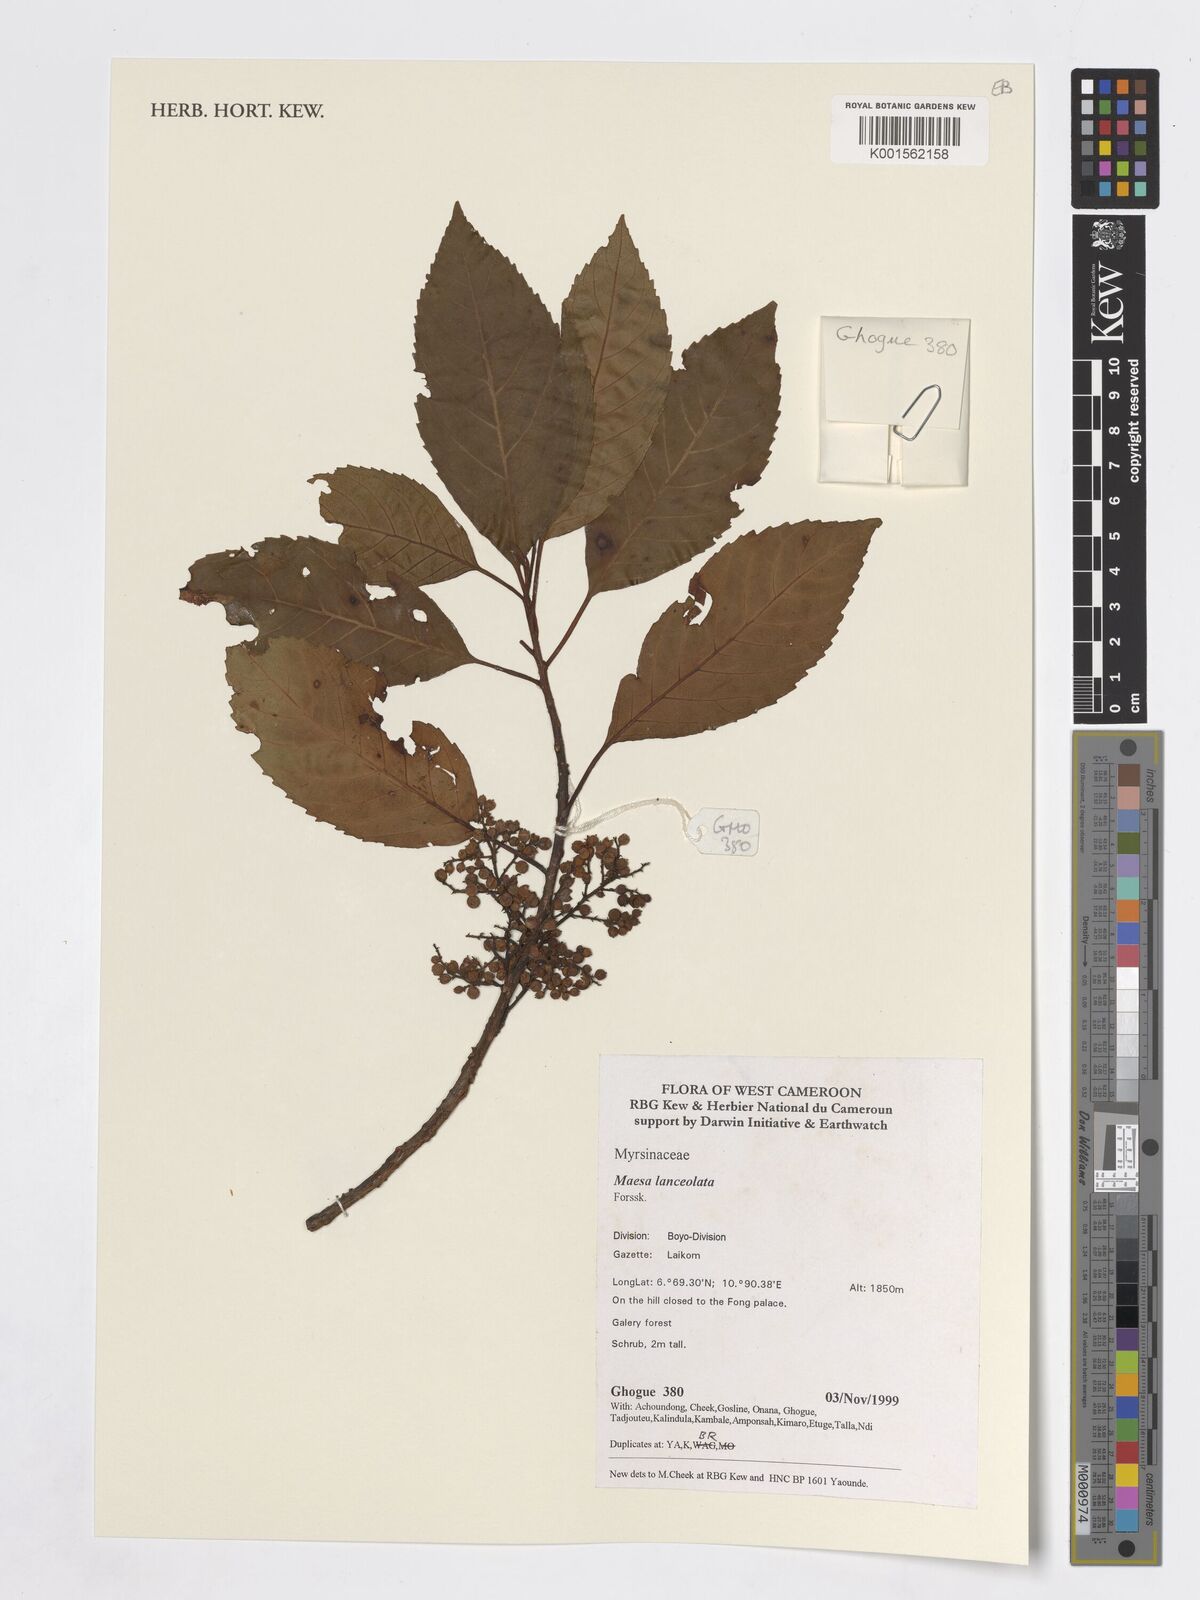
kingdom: Plantae
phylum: Tracheophyta
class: Magnoliopsida
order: Ericales
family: Primulaceae
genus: Maesa
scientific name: Maesa lanceolata
